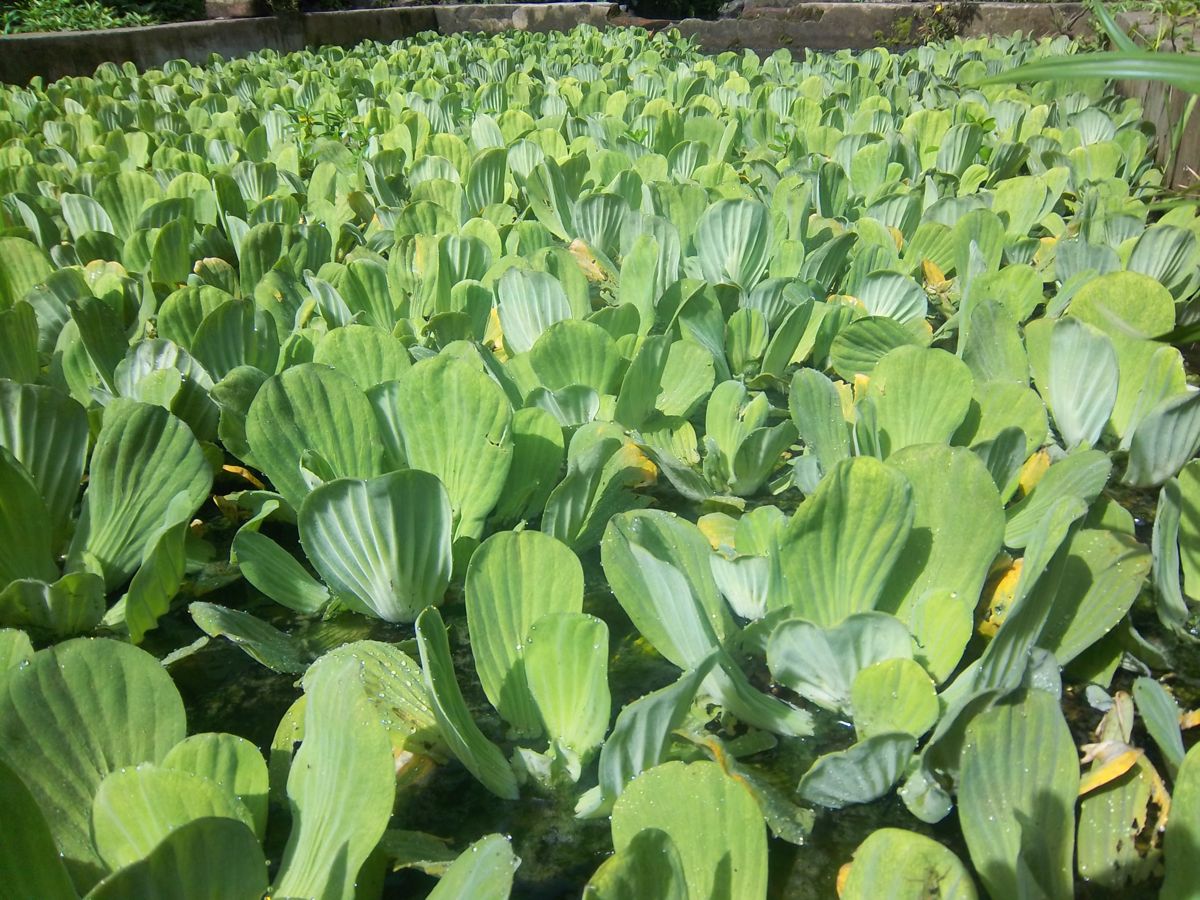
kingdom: Plantae
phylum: Tracheophyta
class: Liliopsida
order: Alismatales
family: Araceae
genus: Pistia
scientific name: Pistia stratiotes
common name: Water lettuce
